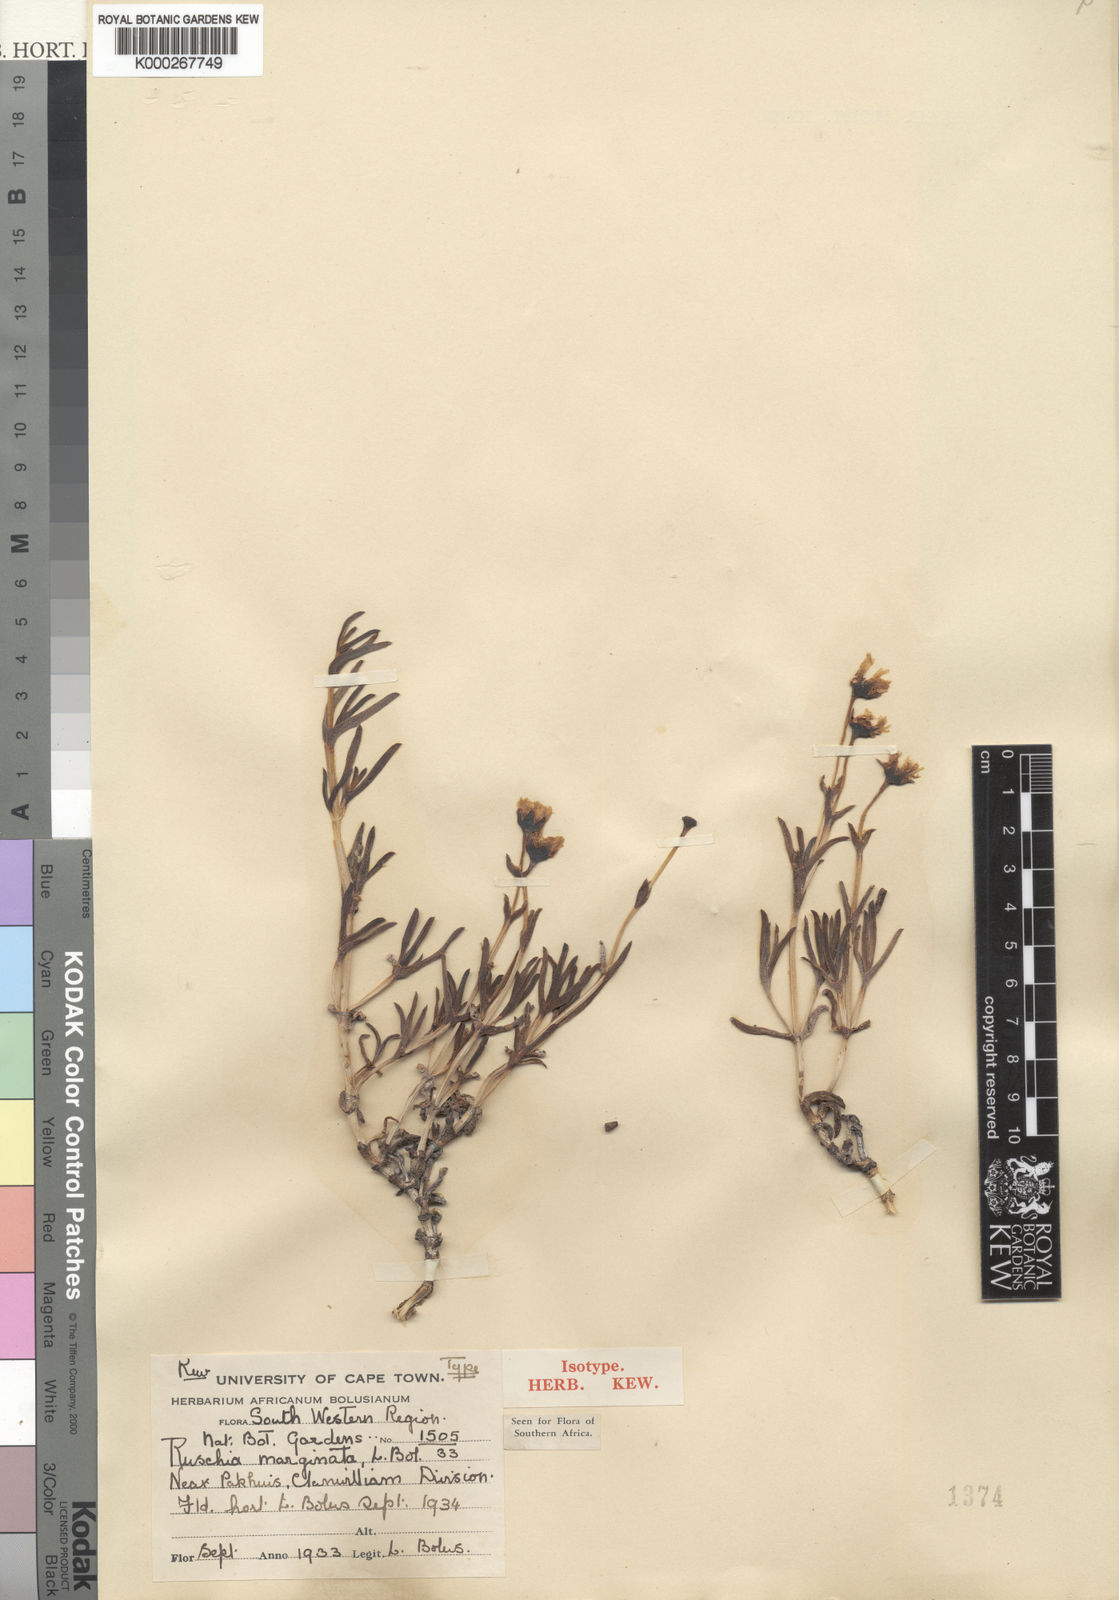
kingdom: Plantae
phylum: Tracheophyta
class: Magnoliopsida
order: Caryophyllales
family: Aizoaceae
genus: Lampranthus
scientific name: Lampranthus marginatus
